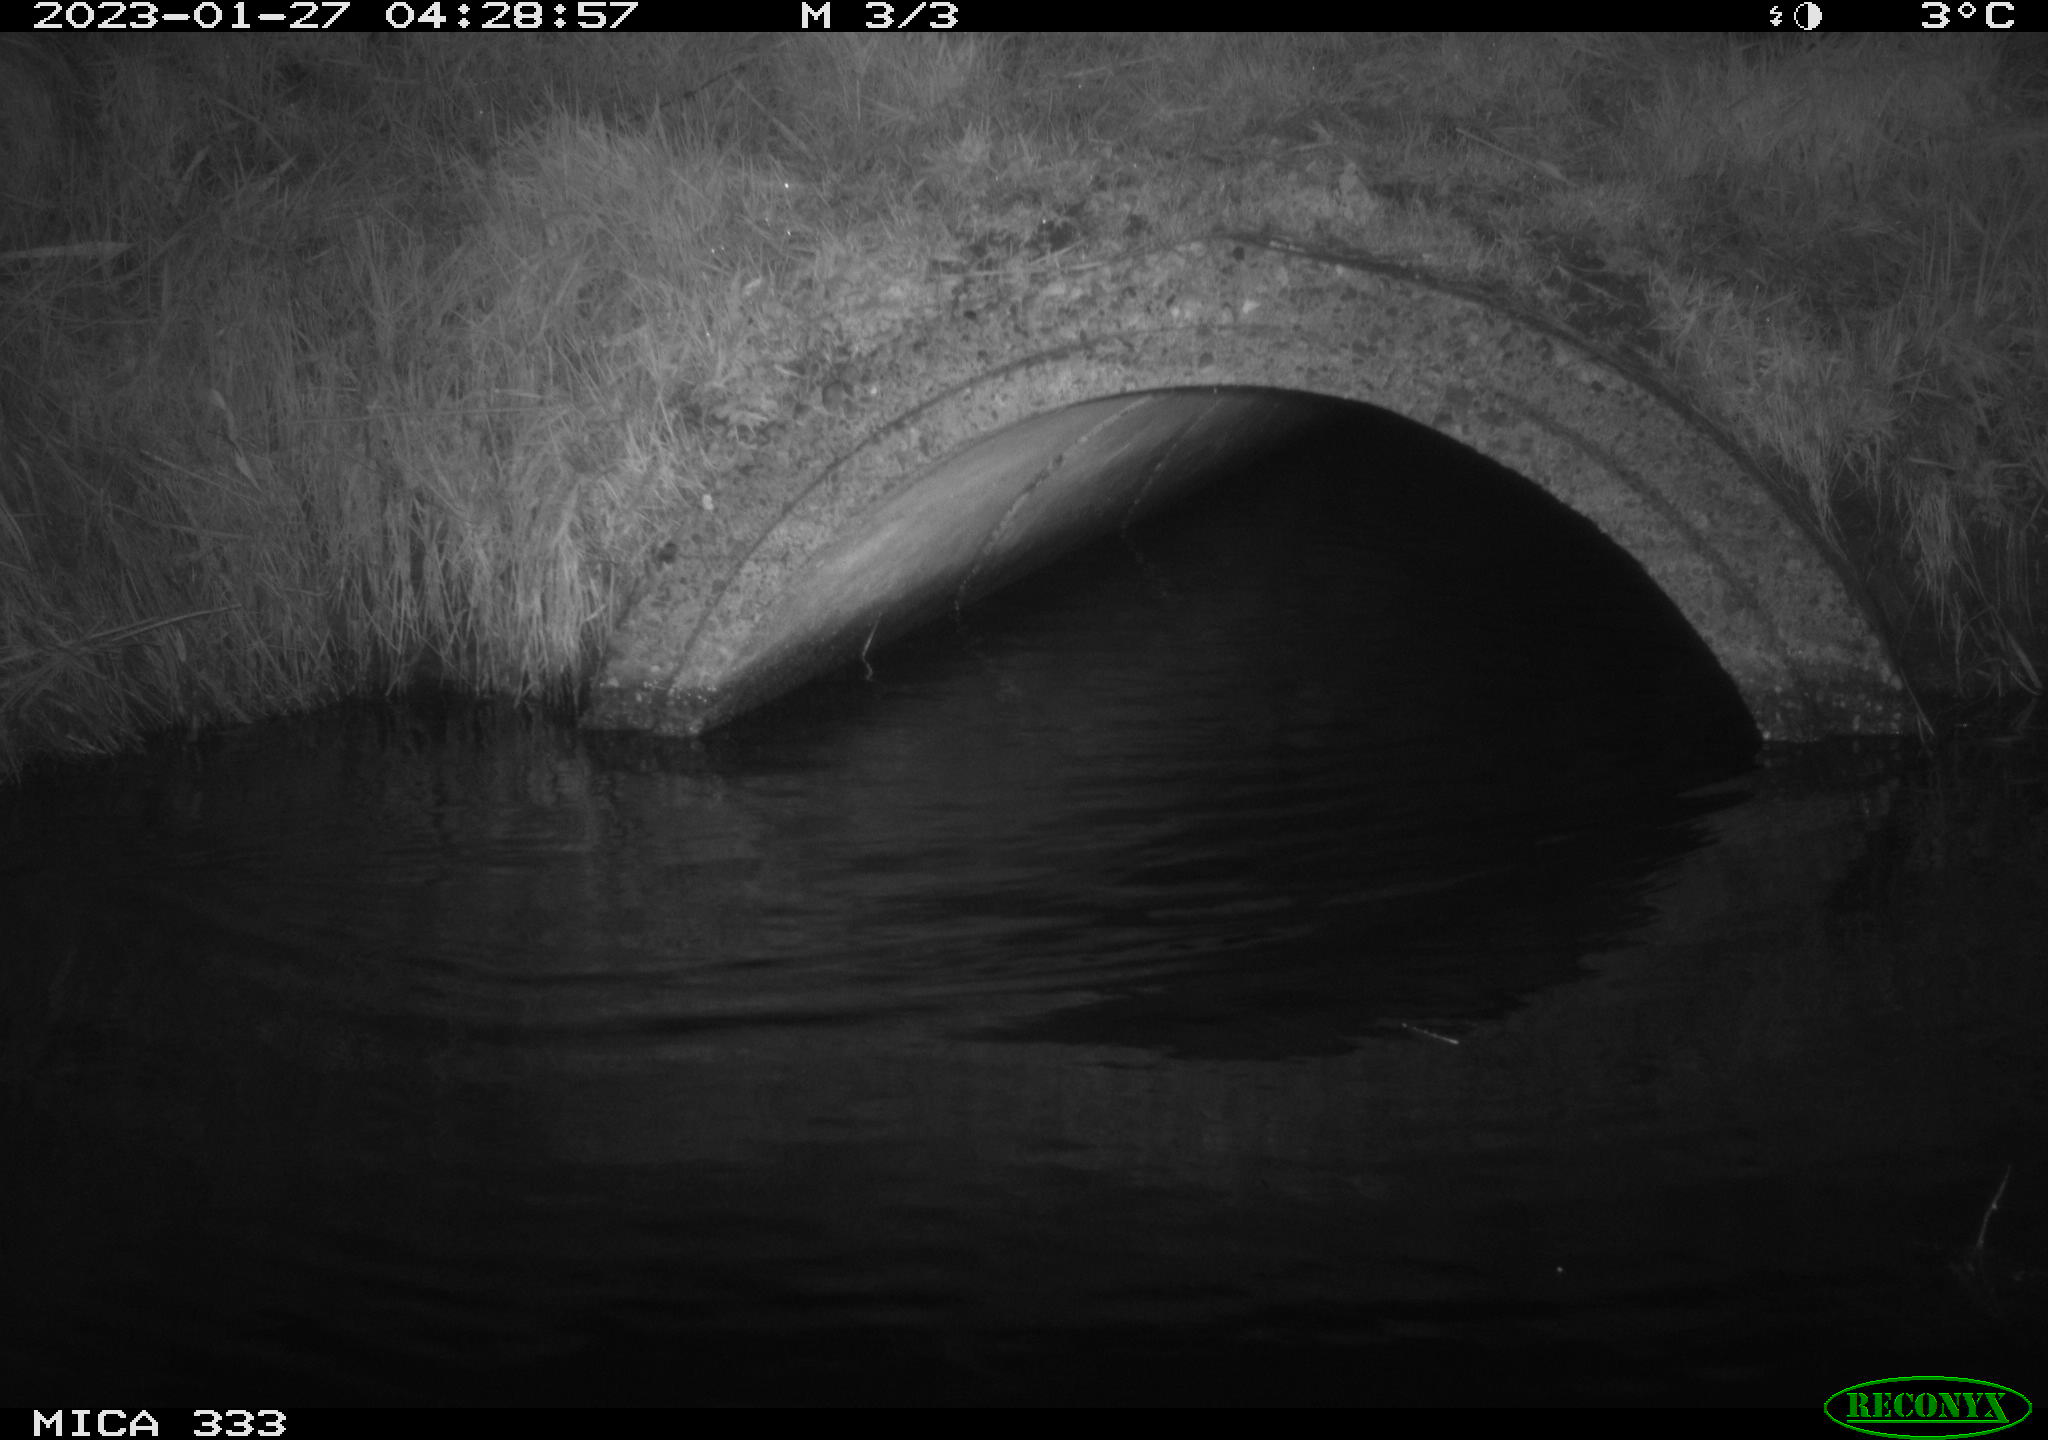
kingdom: Animalia
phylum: Chordata
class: Mammalia
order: Rodentia
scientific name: Rodentia
